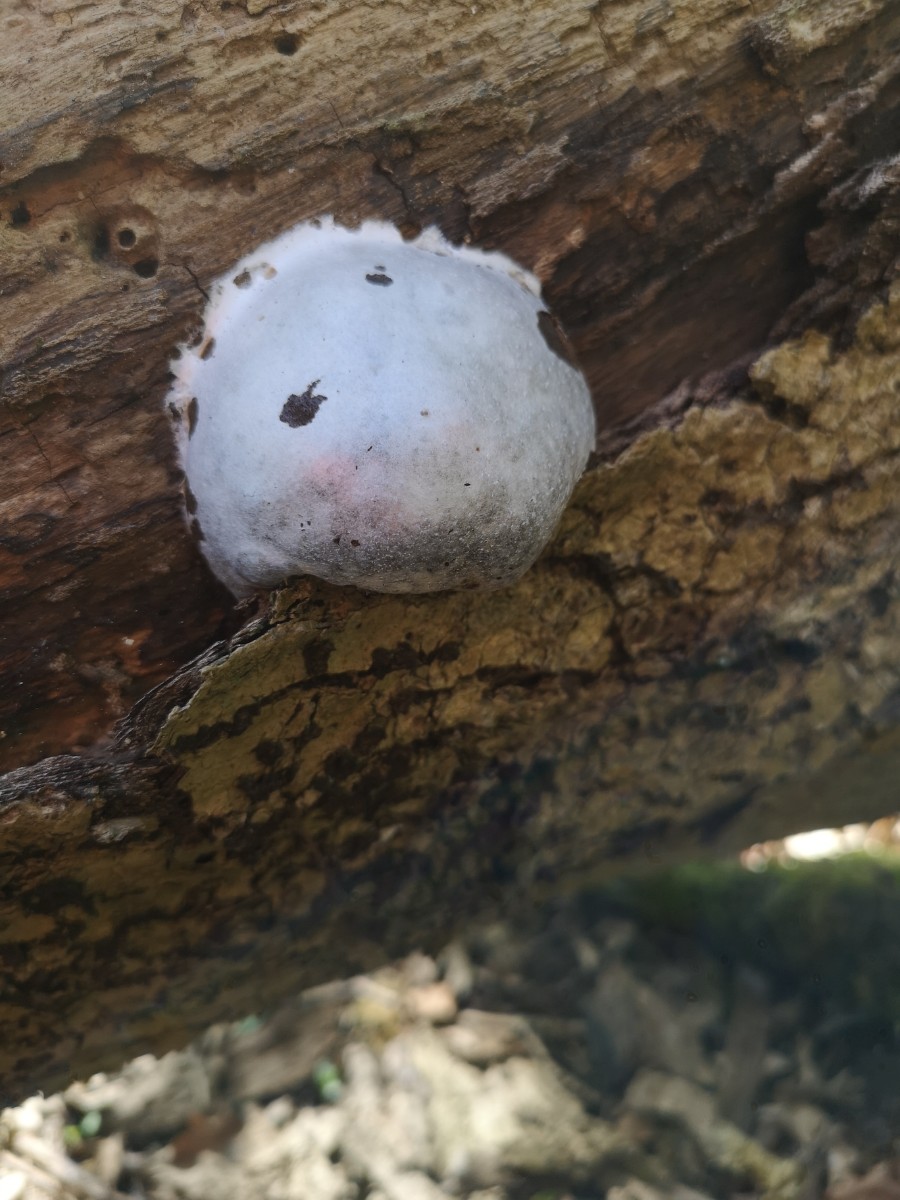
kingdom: Protozoa
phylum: Mycetozoa
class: Myxomycetes
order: Cribrariales
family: Tubiferaceae
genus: Reticularia
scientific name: Reticularia lycoperdon
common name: skinnende støvpude
